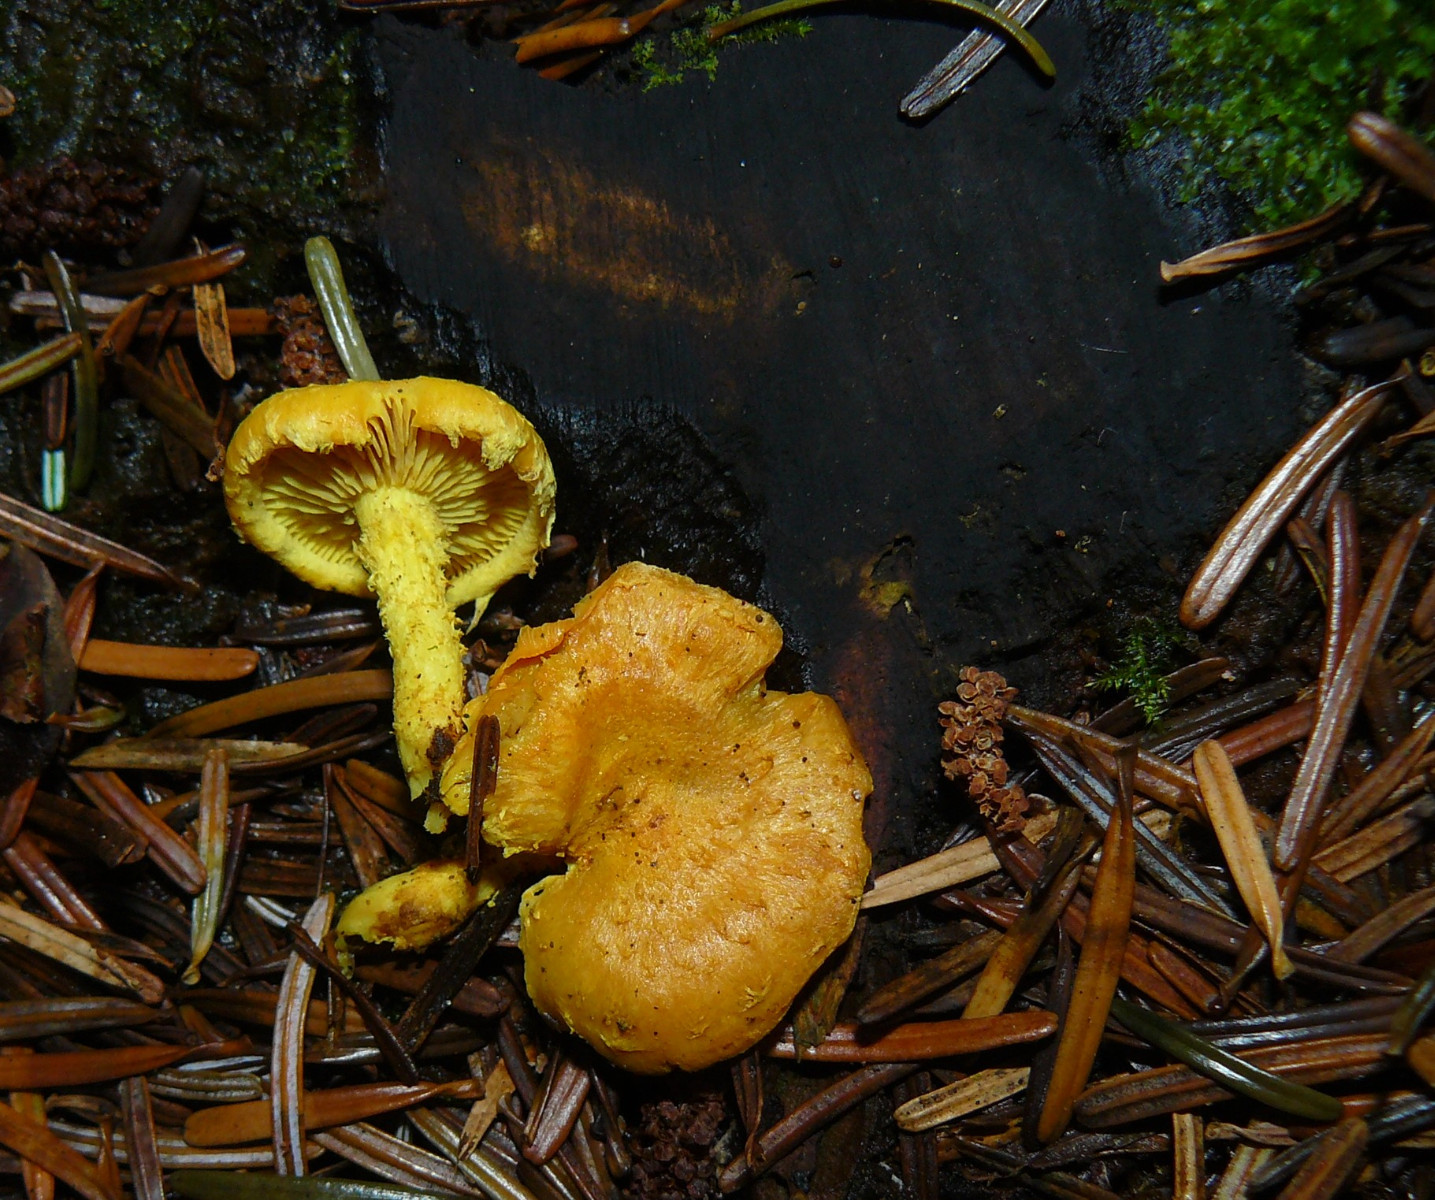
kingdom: Fungi
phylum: Basidiomycota
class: Agaricomycetes
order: Agaricales
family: Strophariaceae
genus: Pholiota
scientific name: Pholiota flammans
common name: flamme-skælhat
